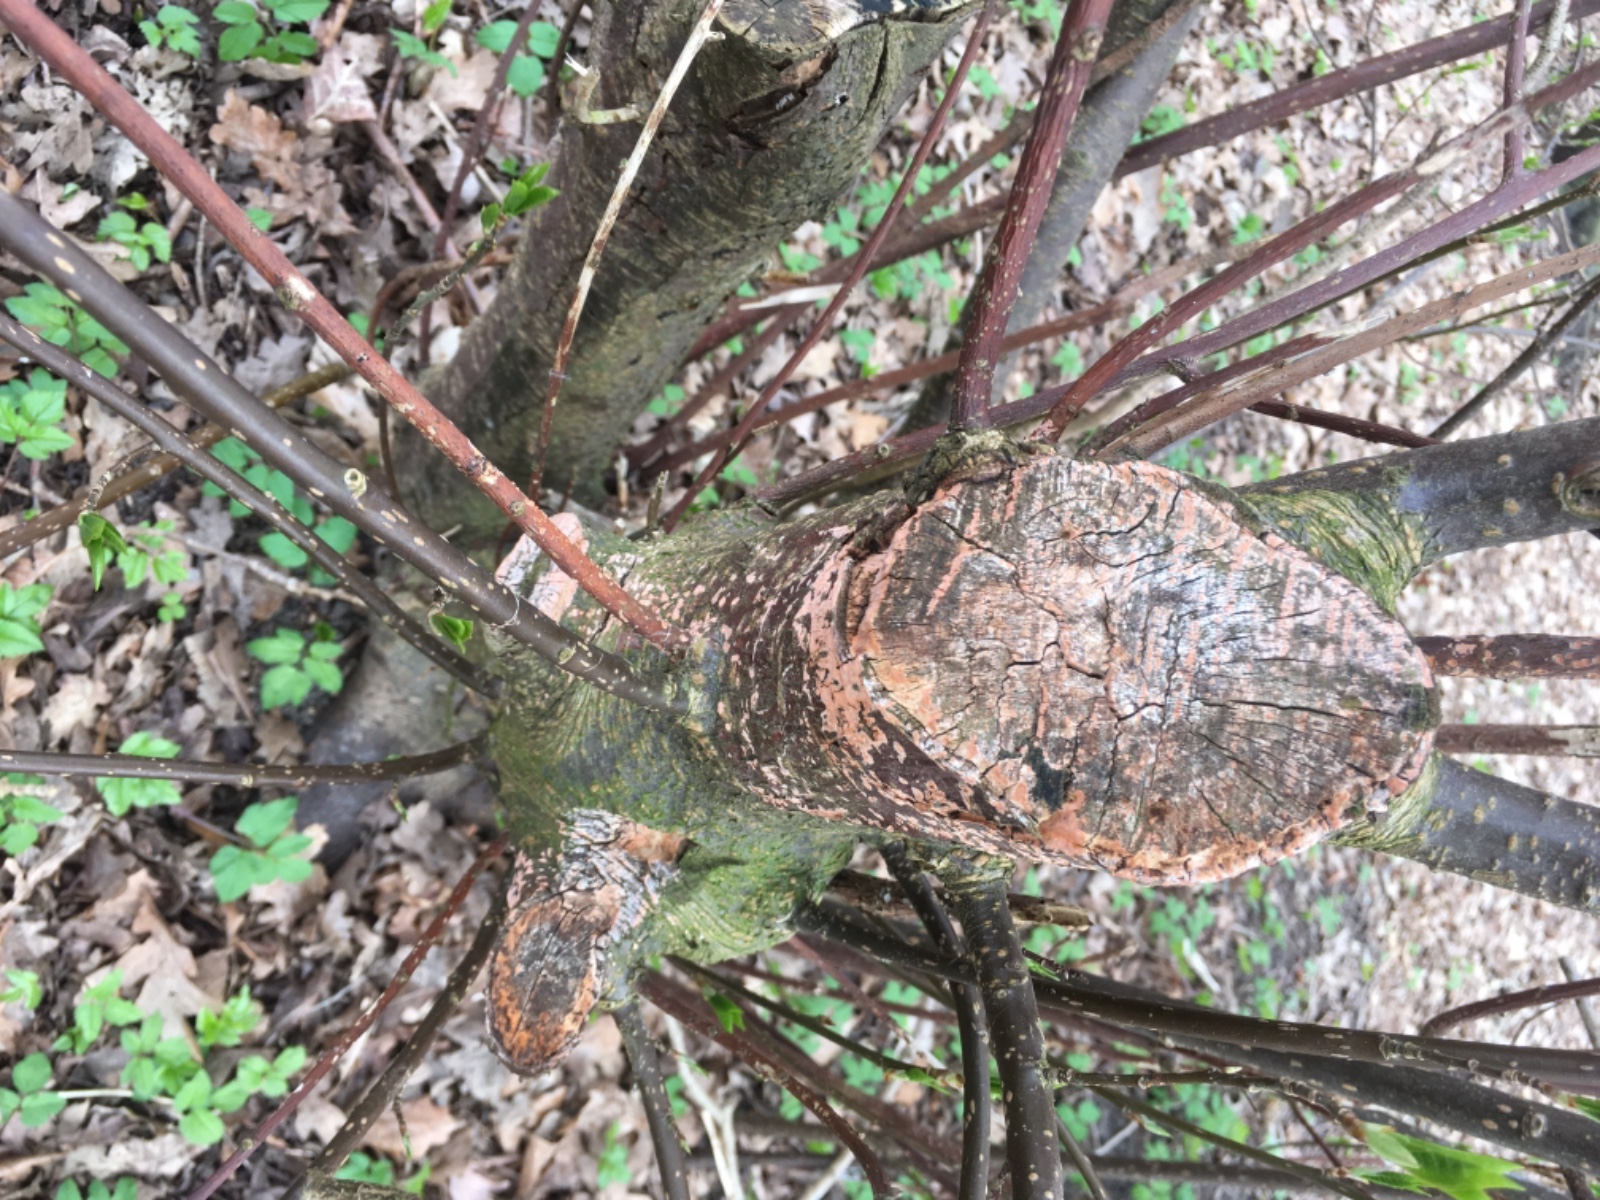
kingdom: Fungi
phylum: Basidiomycota
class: Agaricomycetes
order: Russulales
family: Peniophoraceae
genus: Peniophora
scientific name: Peniophora incarnata
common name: laksefarvet voksskind
